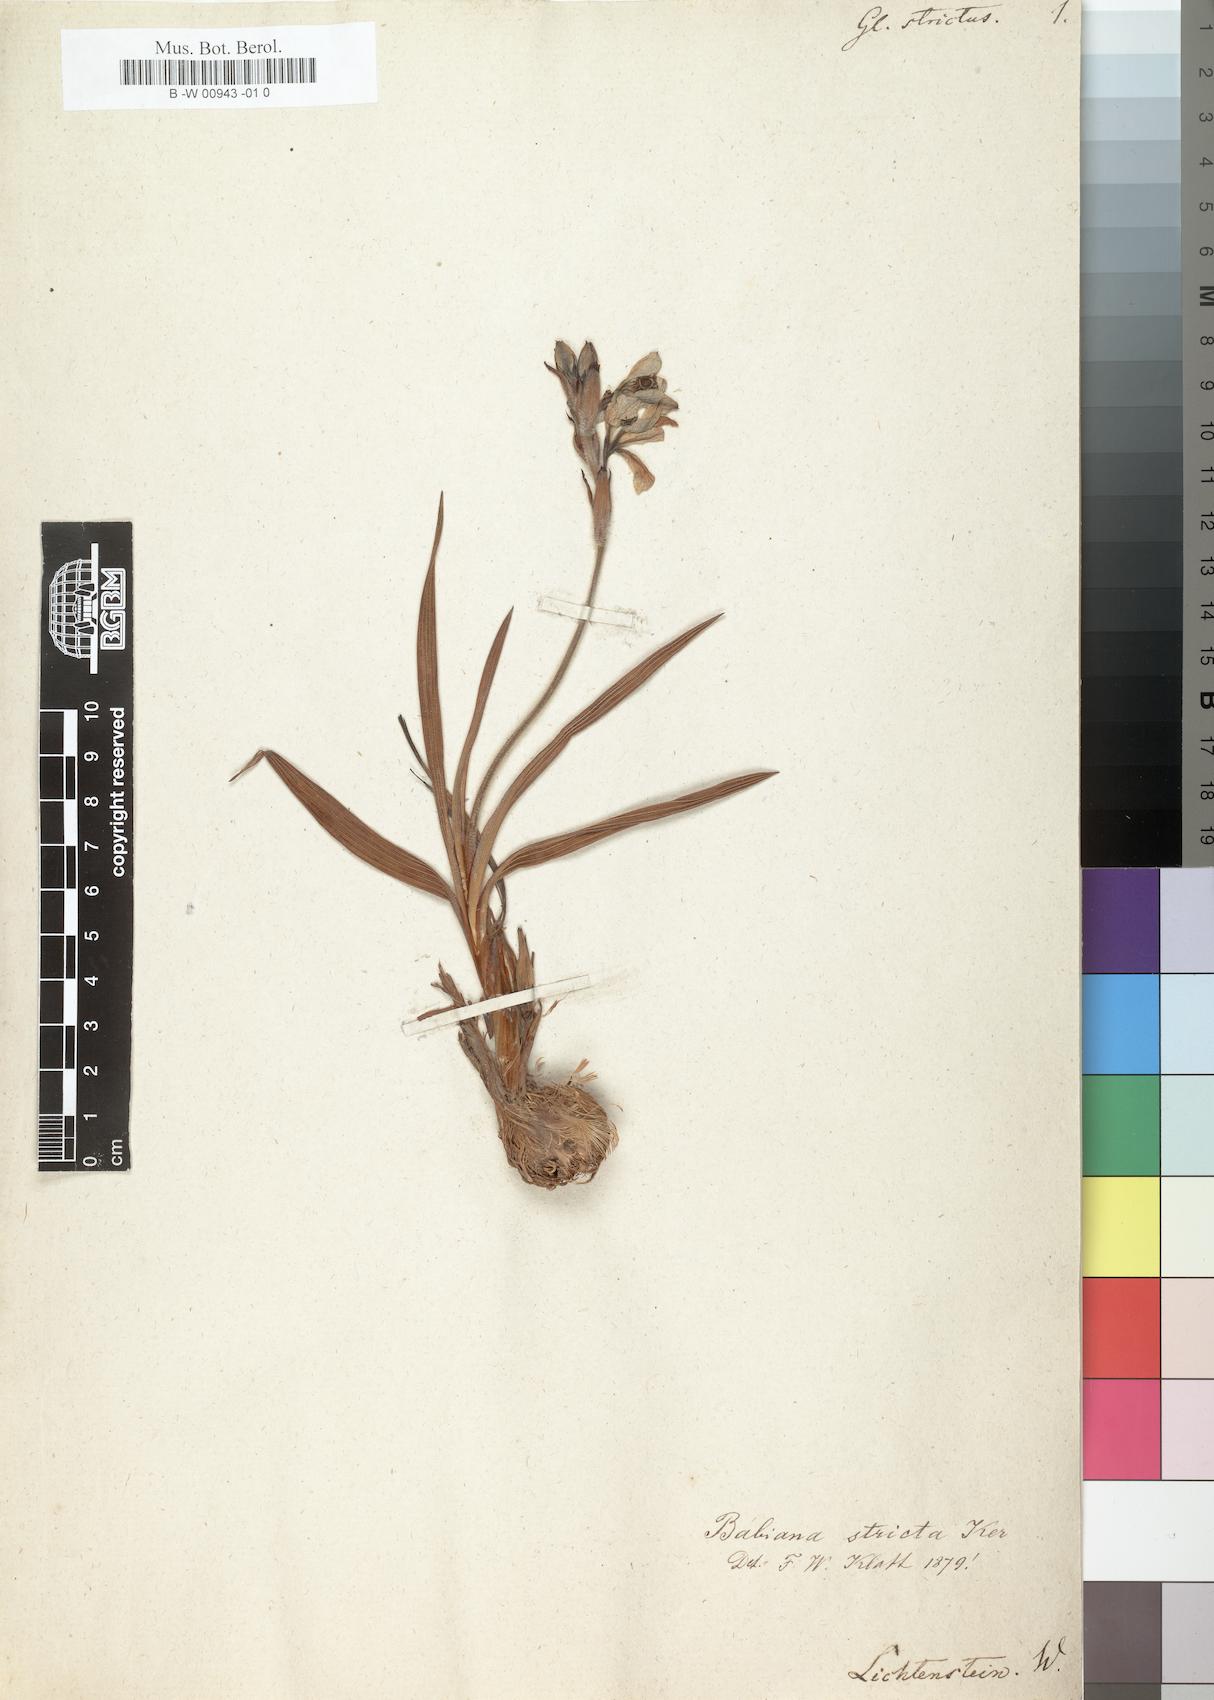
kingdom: Plantae
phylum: Tracheophyta
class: Liliopsida
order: Asparagales
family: Iridaceae
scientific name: Iridaceae
